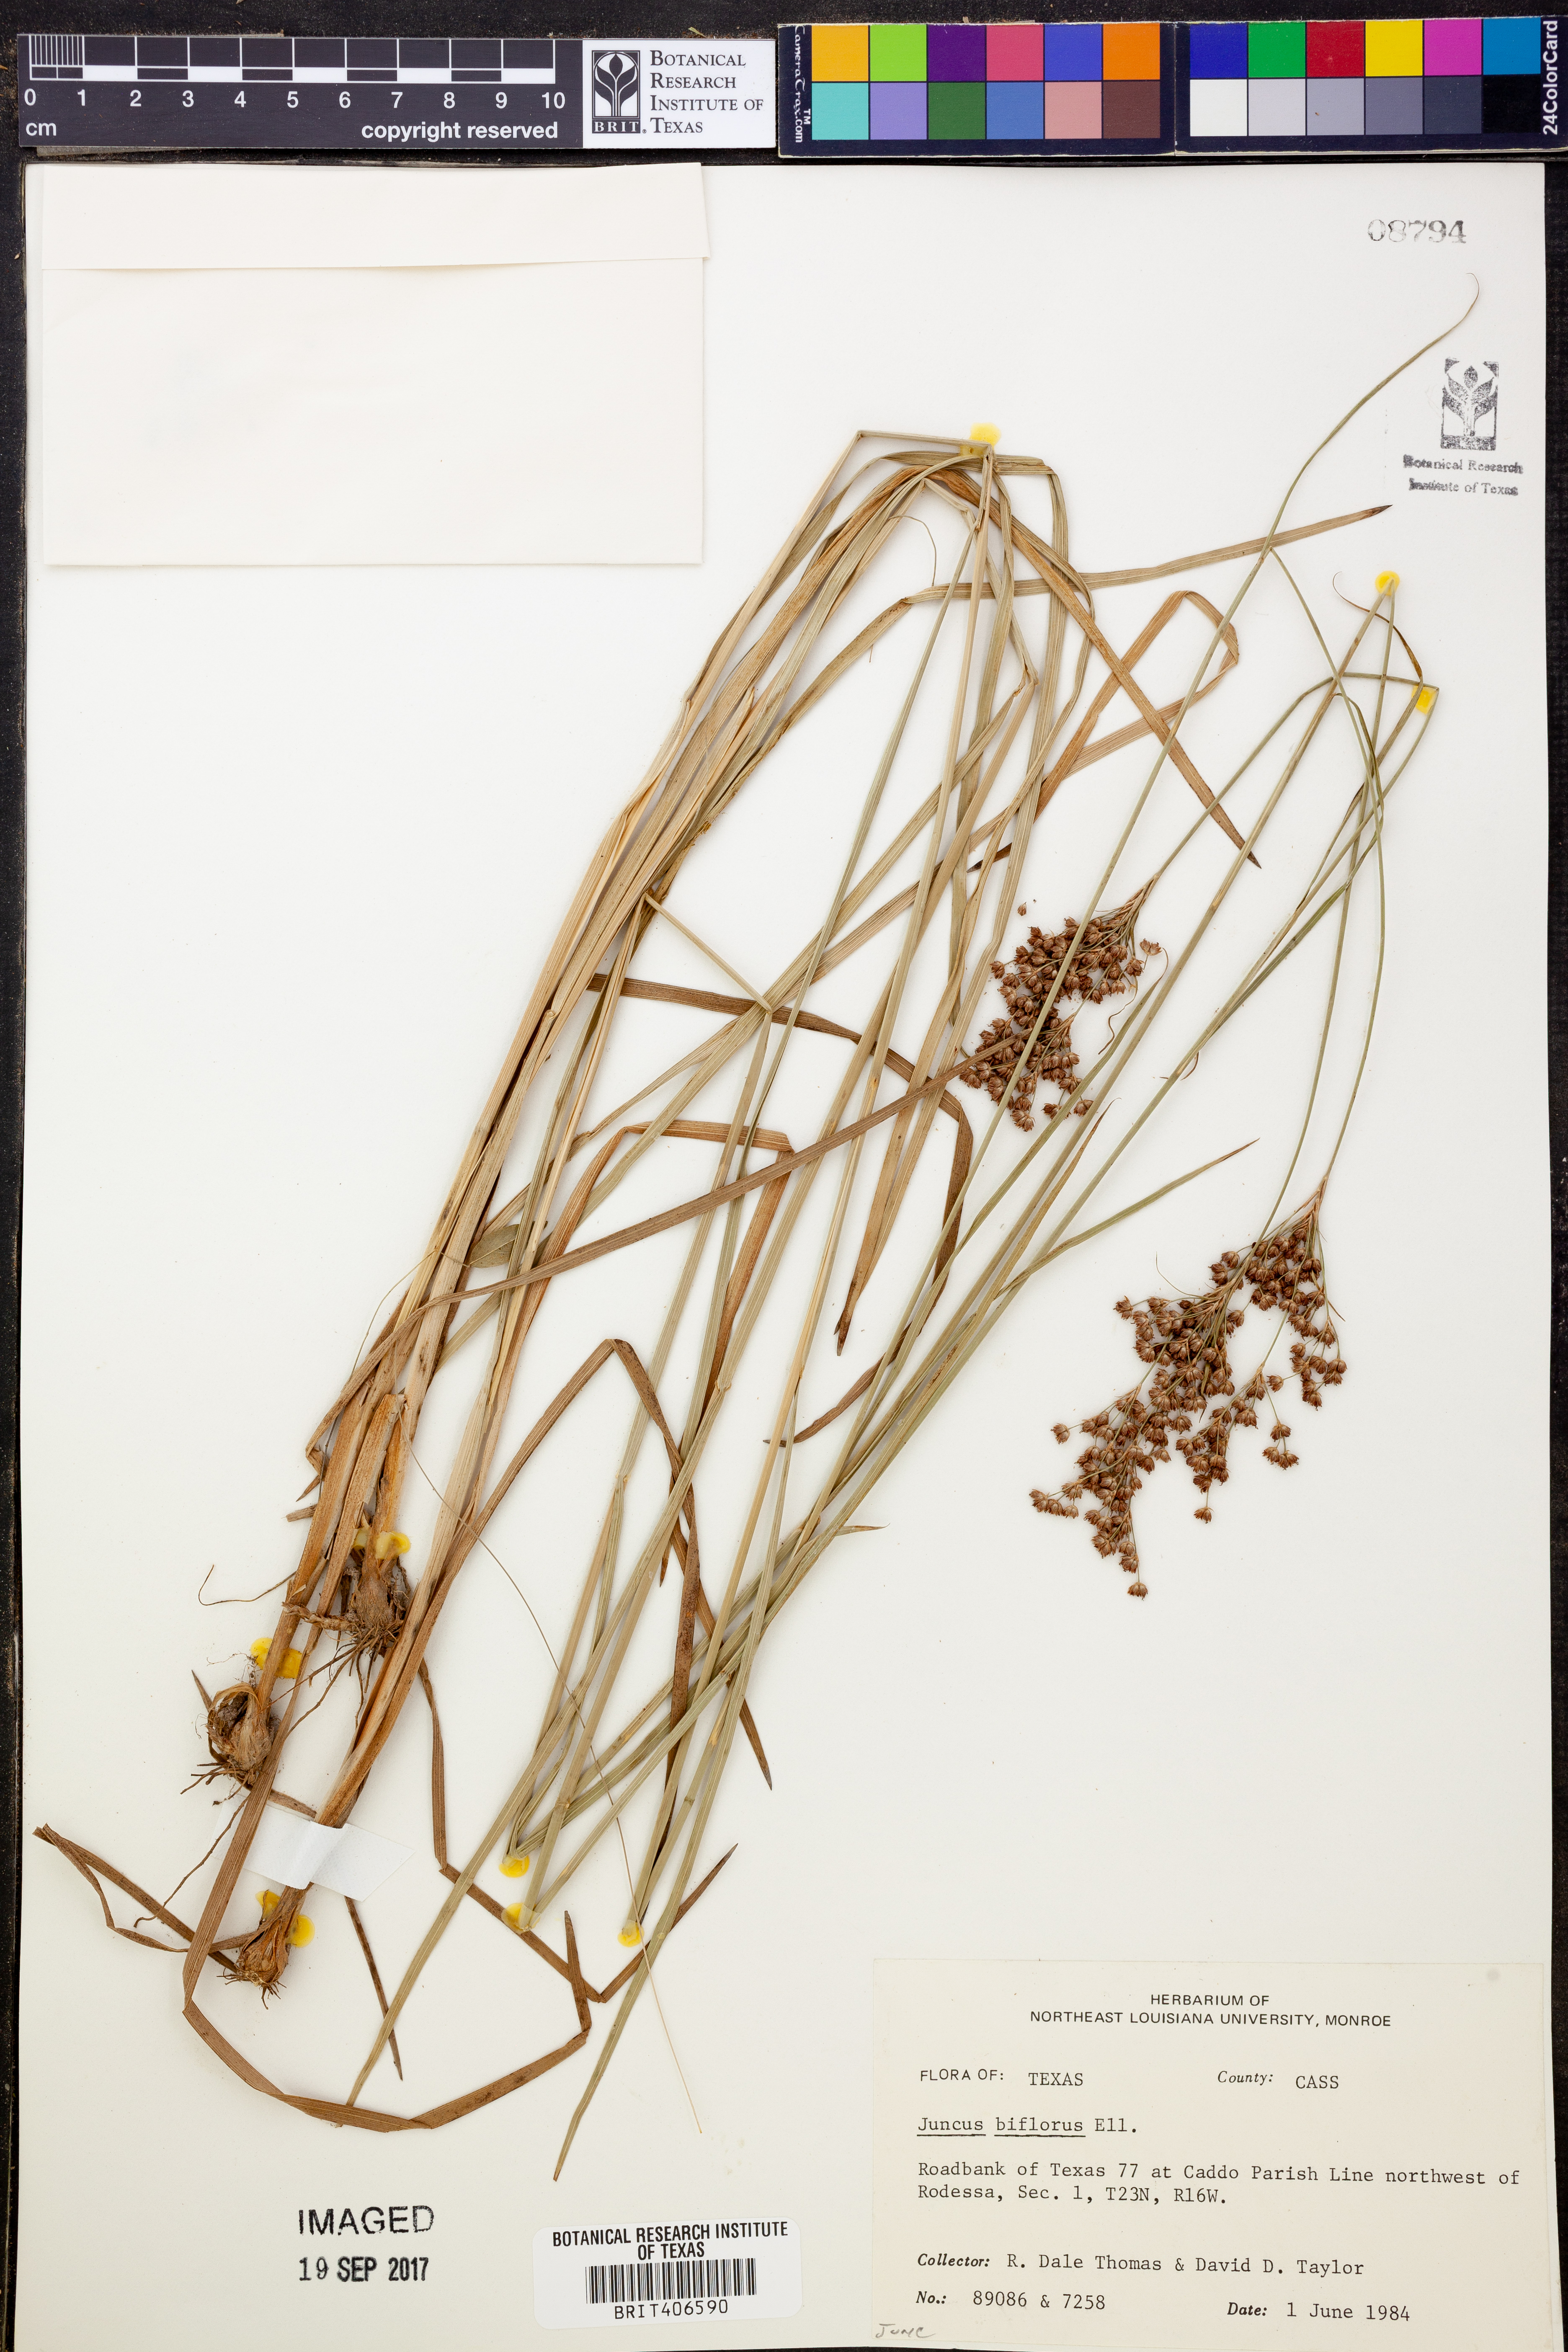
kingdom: Plantae
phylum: Tracheophyta
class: Liliopsida
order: Poales
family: Juncaceae
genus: Juncus
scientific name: Juncus biflorus
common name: Two-flowered rush
